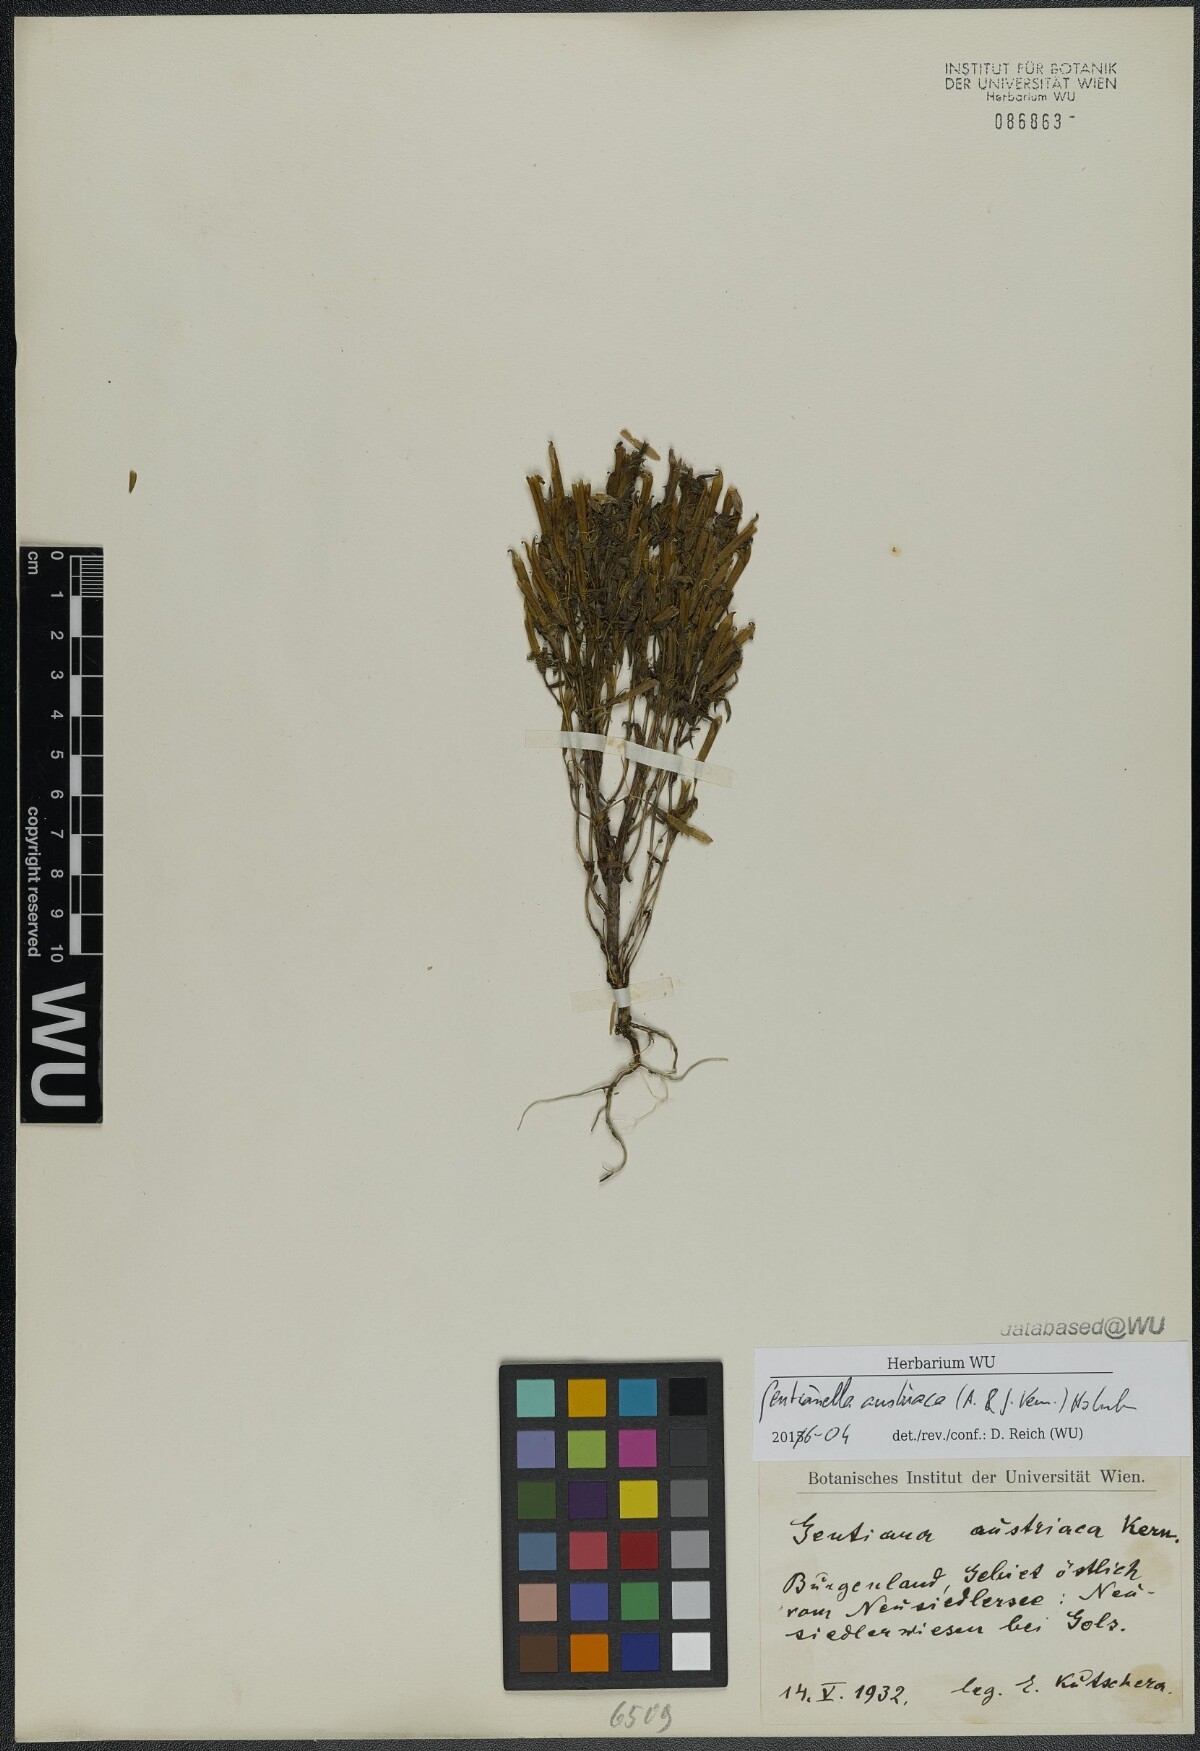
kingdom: Plantae
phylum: Tracheophyta
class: Magnoliopsida
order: Gentianales
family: Gentianaceae
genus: Gentianella
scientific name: Gentianella austriaca
